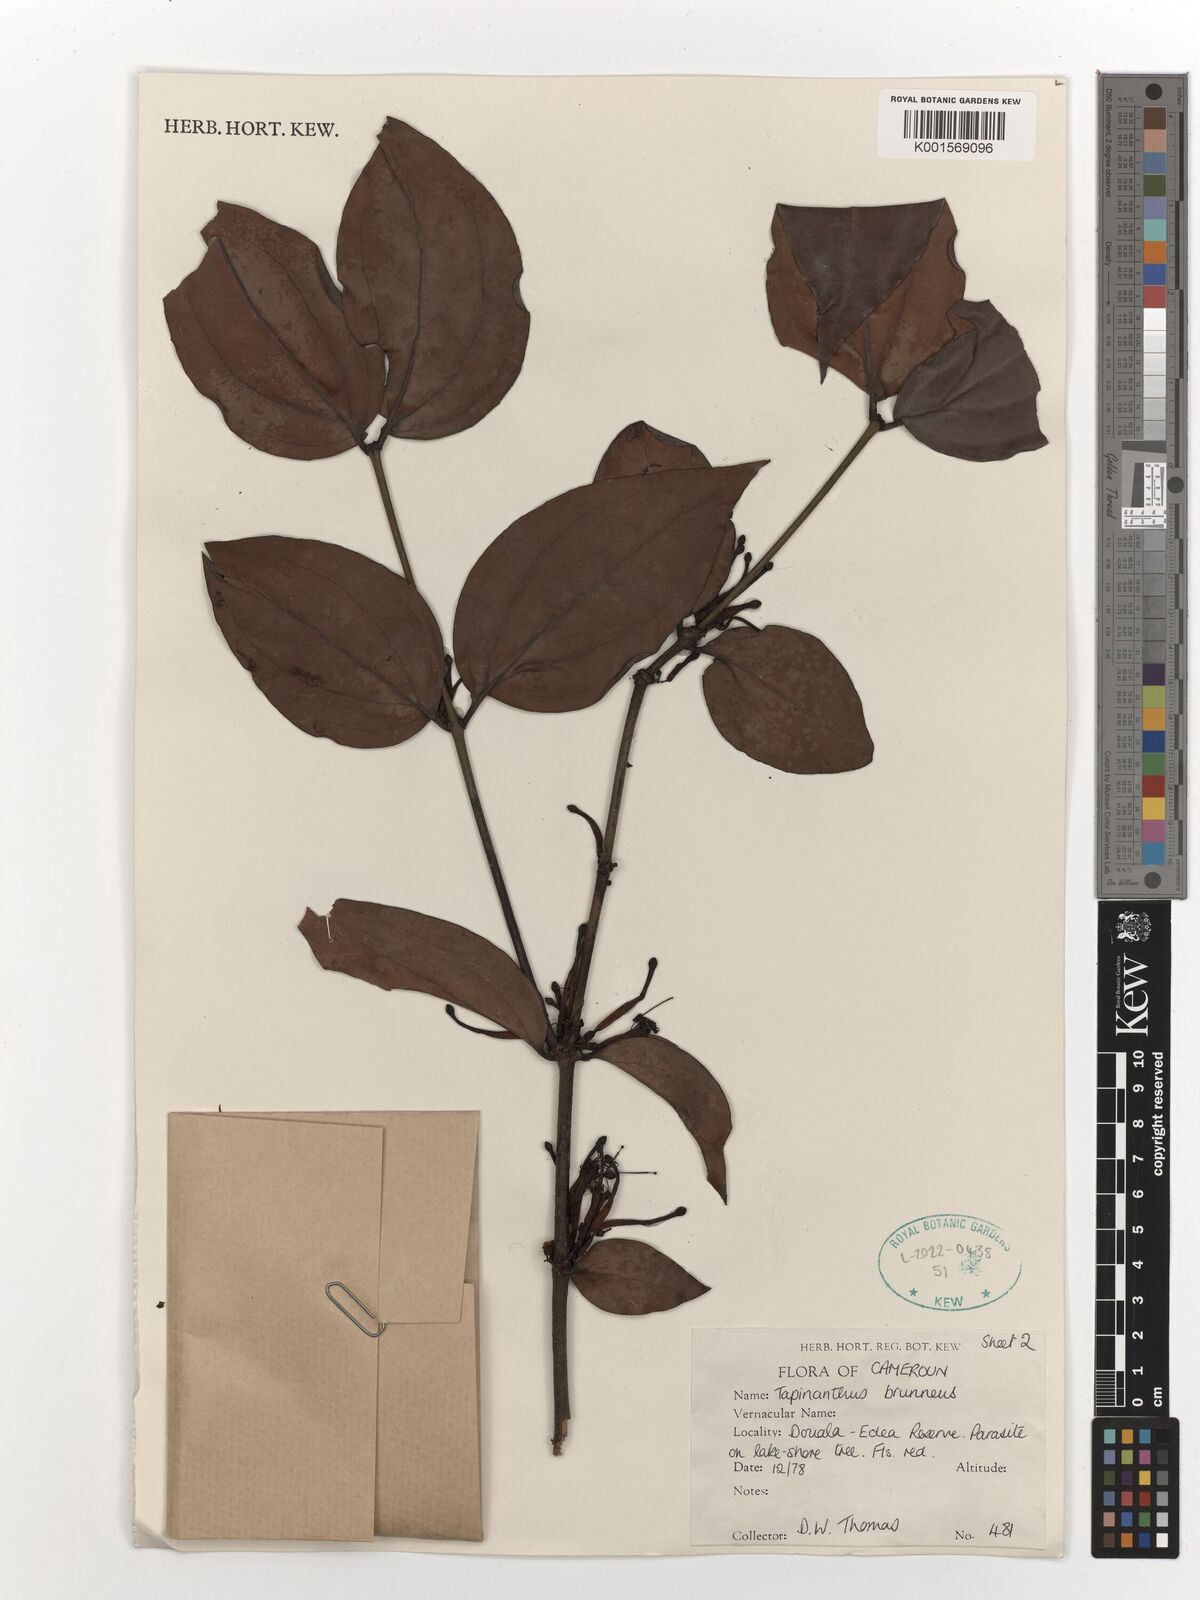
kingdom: Plantae
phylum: Tracheophyta
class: Magnoliopsida
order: Santalales
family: Loranthaceae
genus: Agelanthus
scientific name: Agelanthus brunneus
